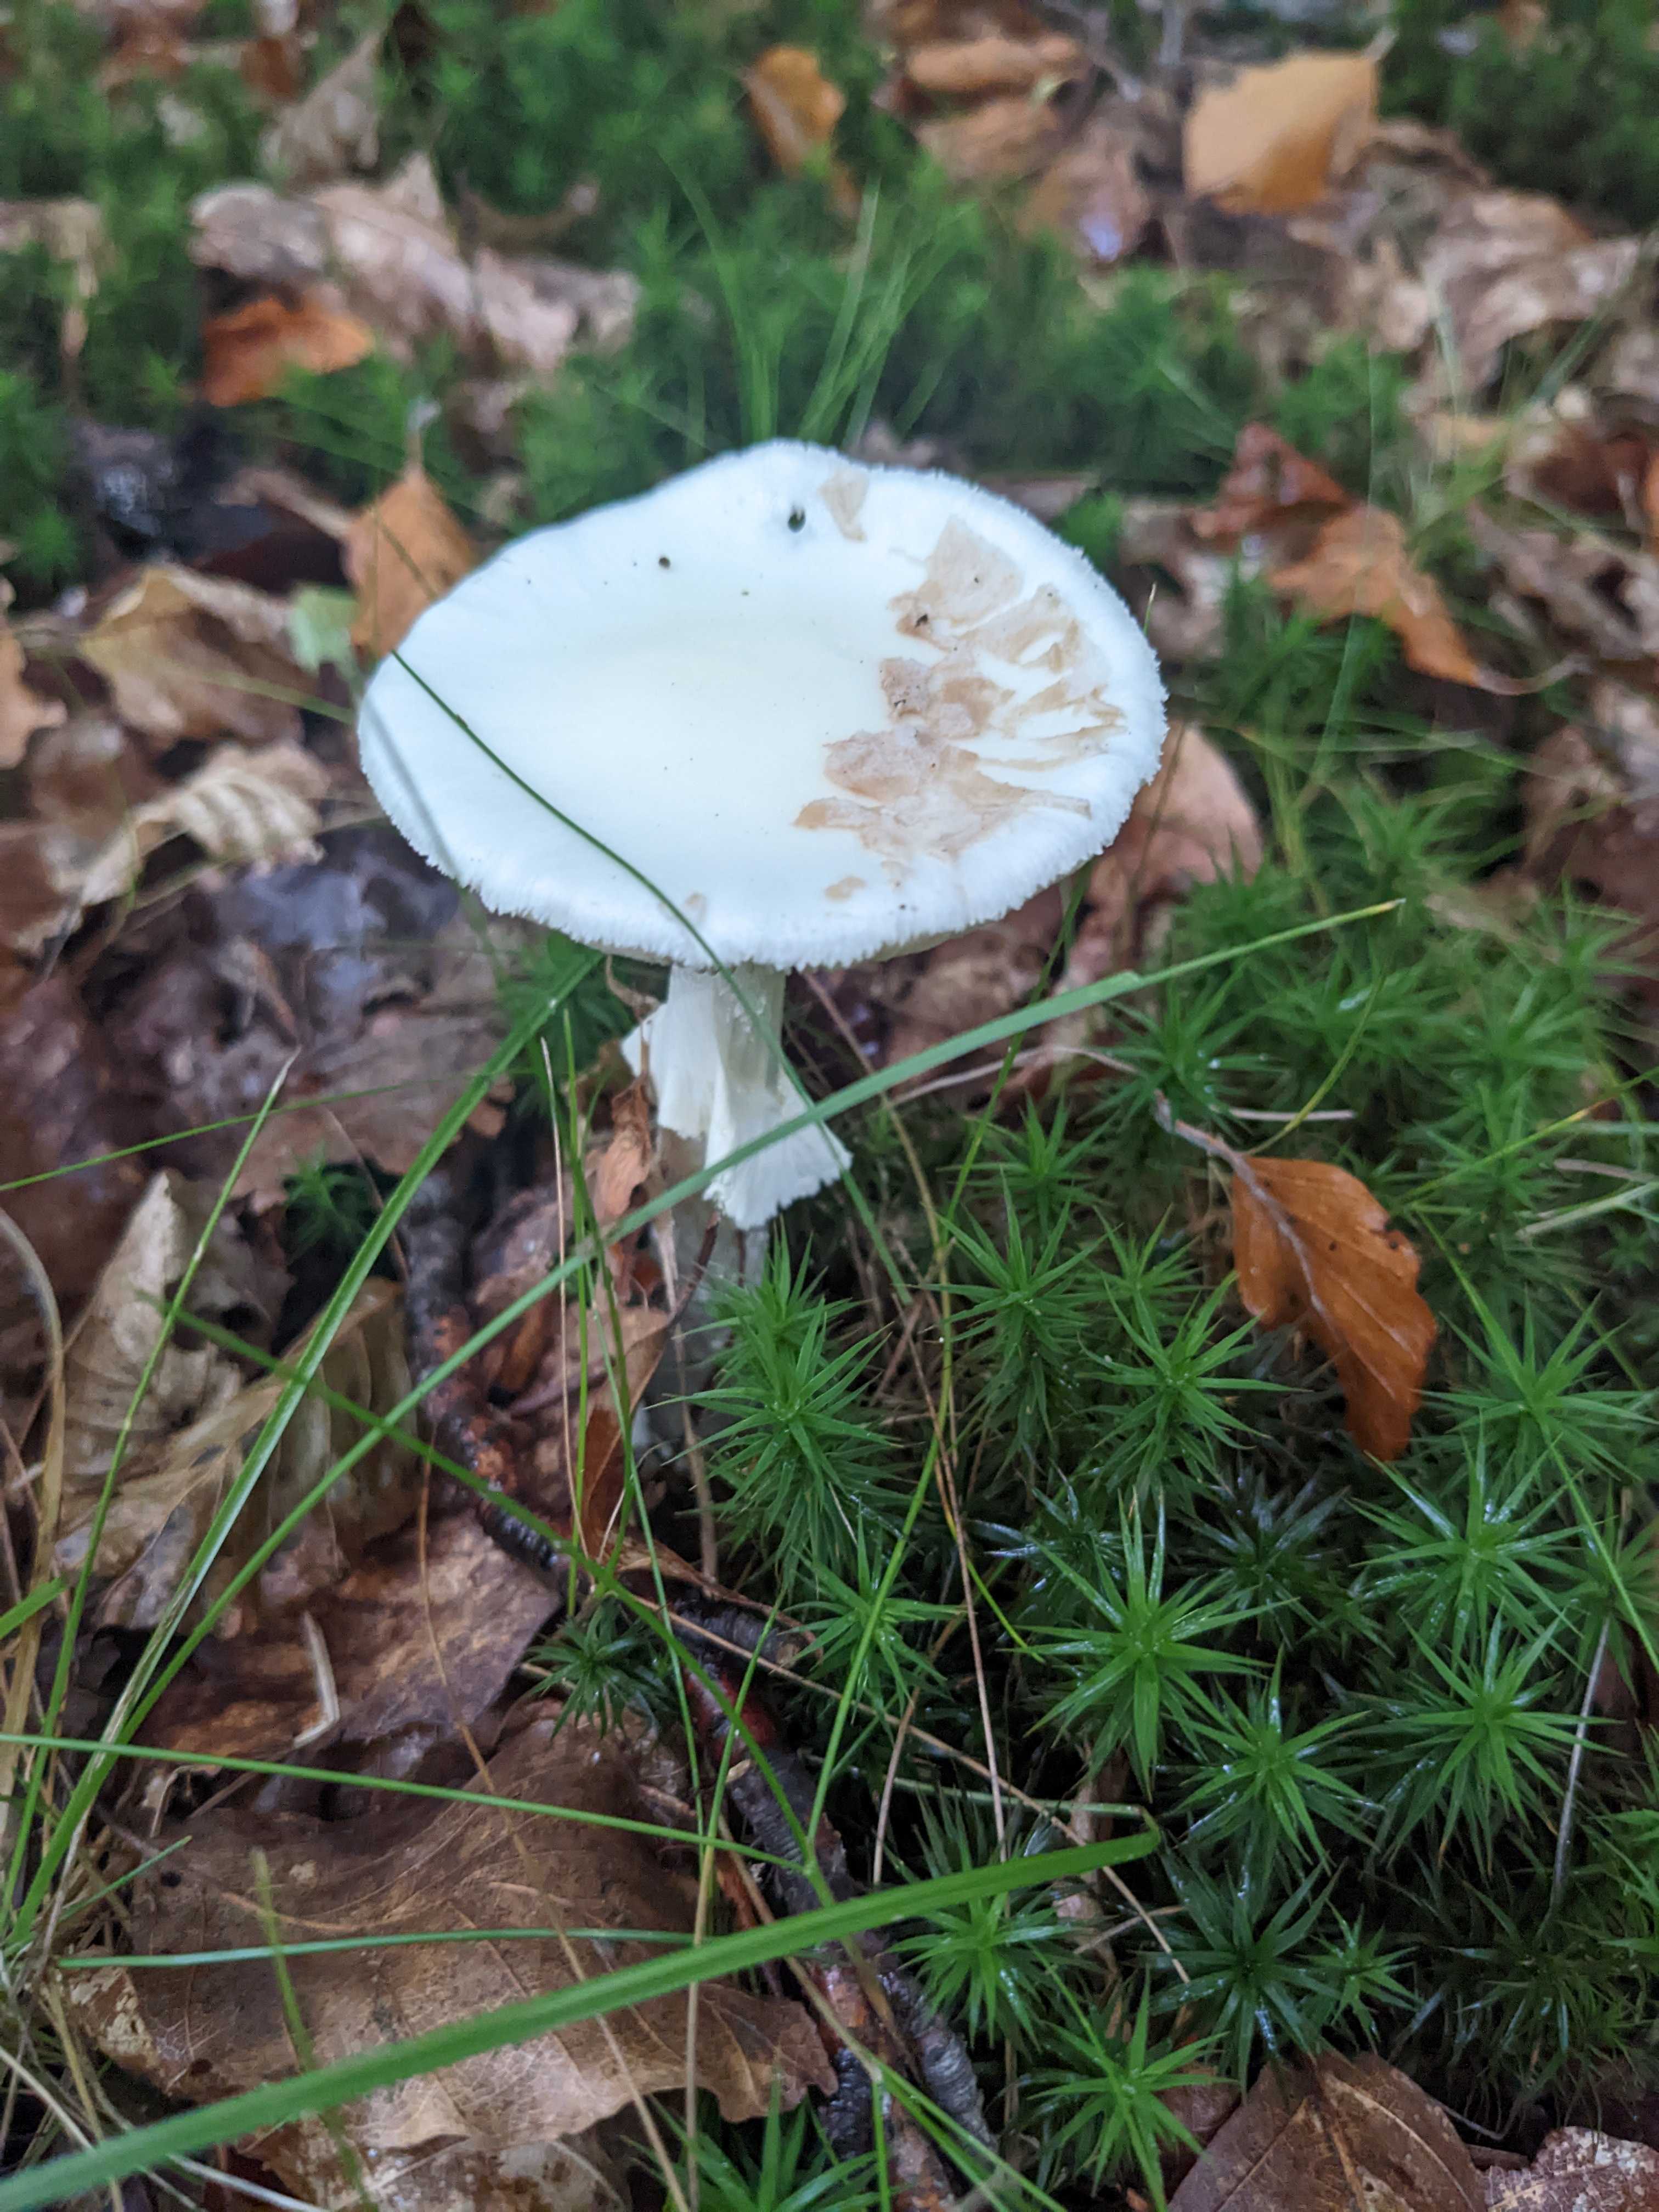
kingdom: Fungi
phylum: Basidiomycota
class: Agaricomycetes
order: Agaricales
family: Amanitaceae
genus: Amanita
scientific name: Amanita citrina
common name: kugleknoldet fluesvamp
